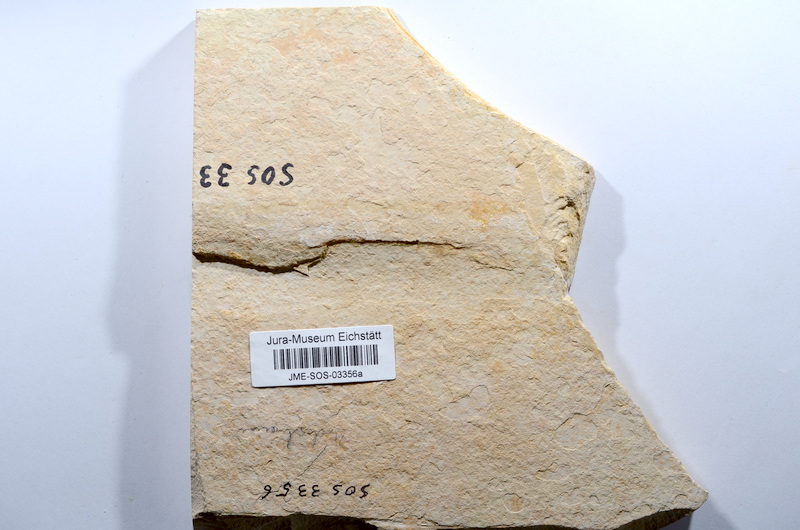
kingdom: Animalia
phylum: Chordata
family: Allothrissopidae
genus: Allothrissops
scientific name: Allothrissops
